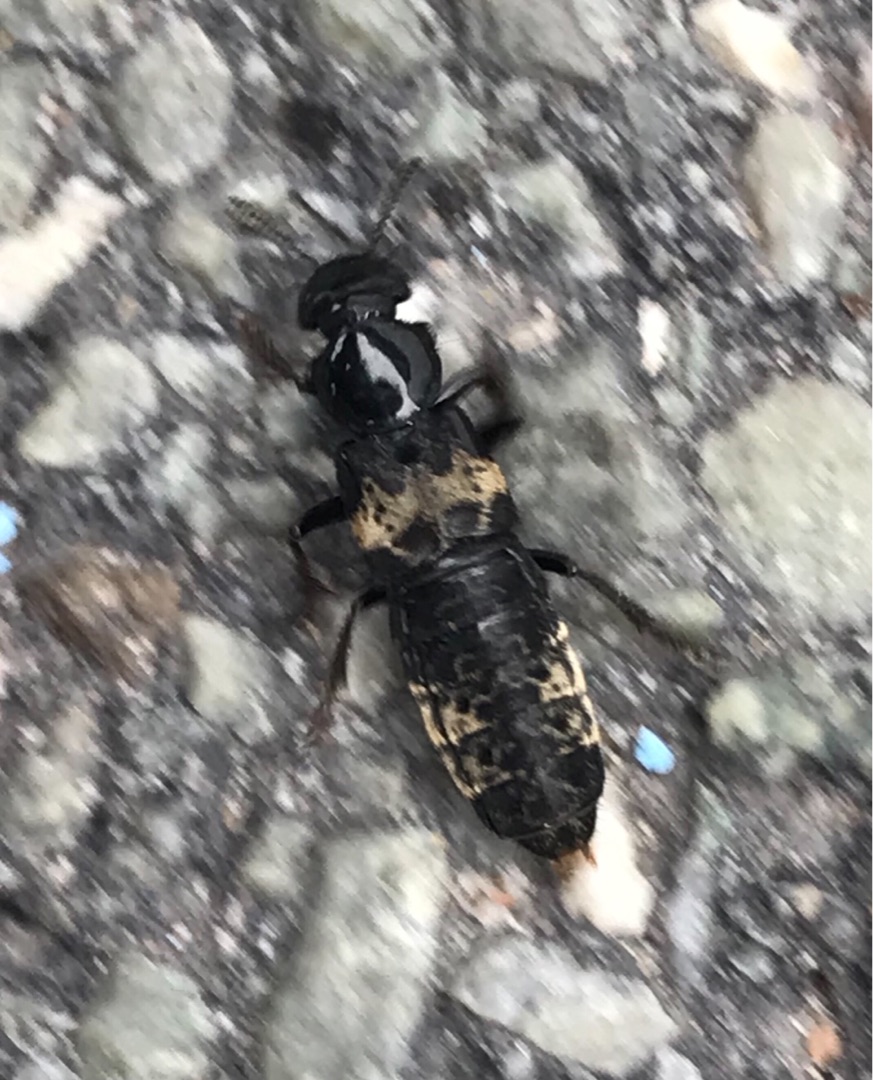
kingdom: Animalia
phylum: Arthropoda
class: Insecta
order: Coleoptera
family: Staphylinidae
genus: Creophilus
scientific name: Creophilus maxillosus
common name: Skrækrovbille
